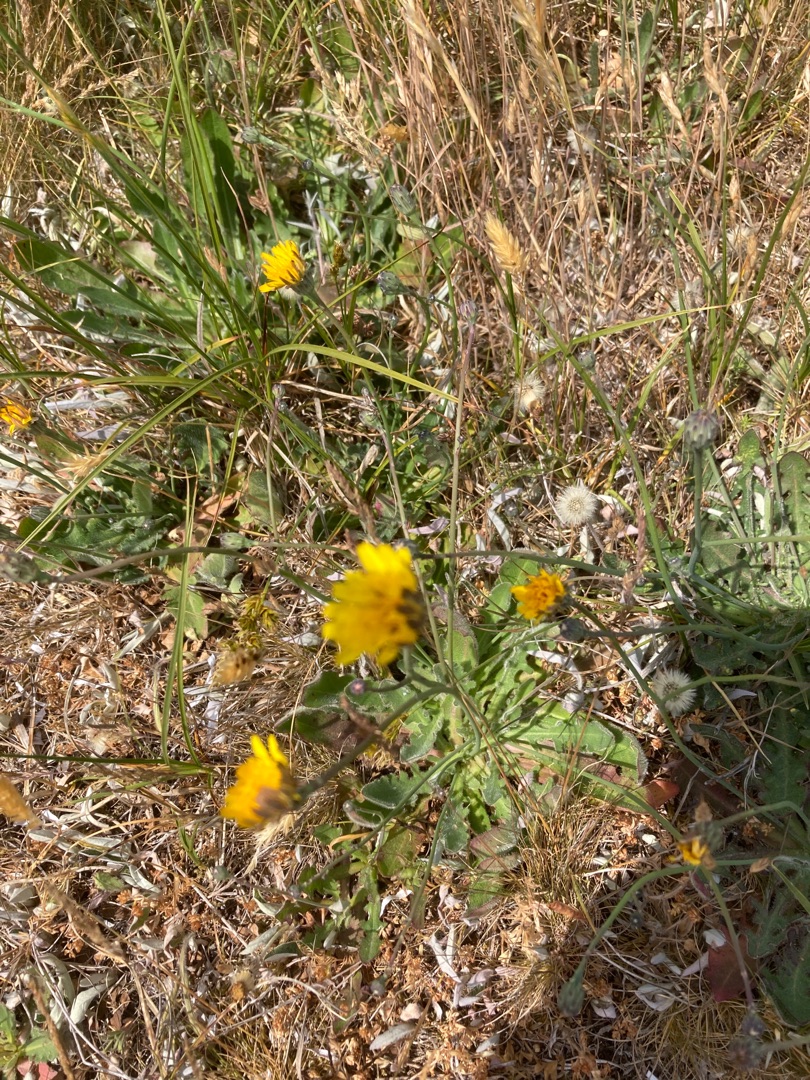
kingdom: Plantae
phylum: Tracheophyta
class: Magnoliopsida
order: Asterales
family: Asteraceae
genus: Hypochaeris
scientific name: Hypochaeris radicata
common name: Almindelig kongepen
